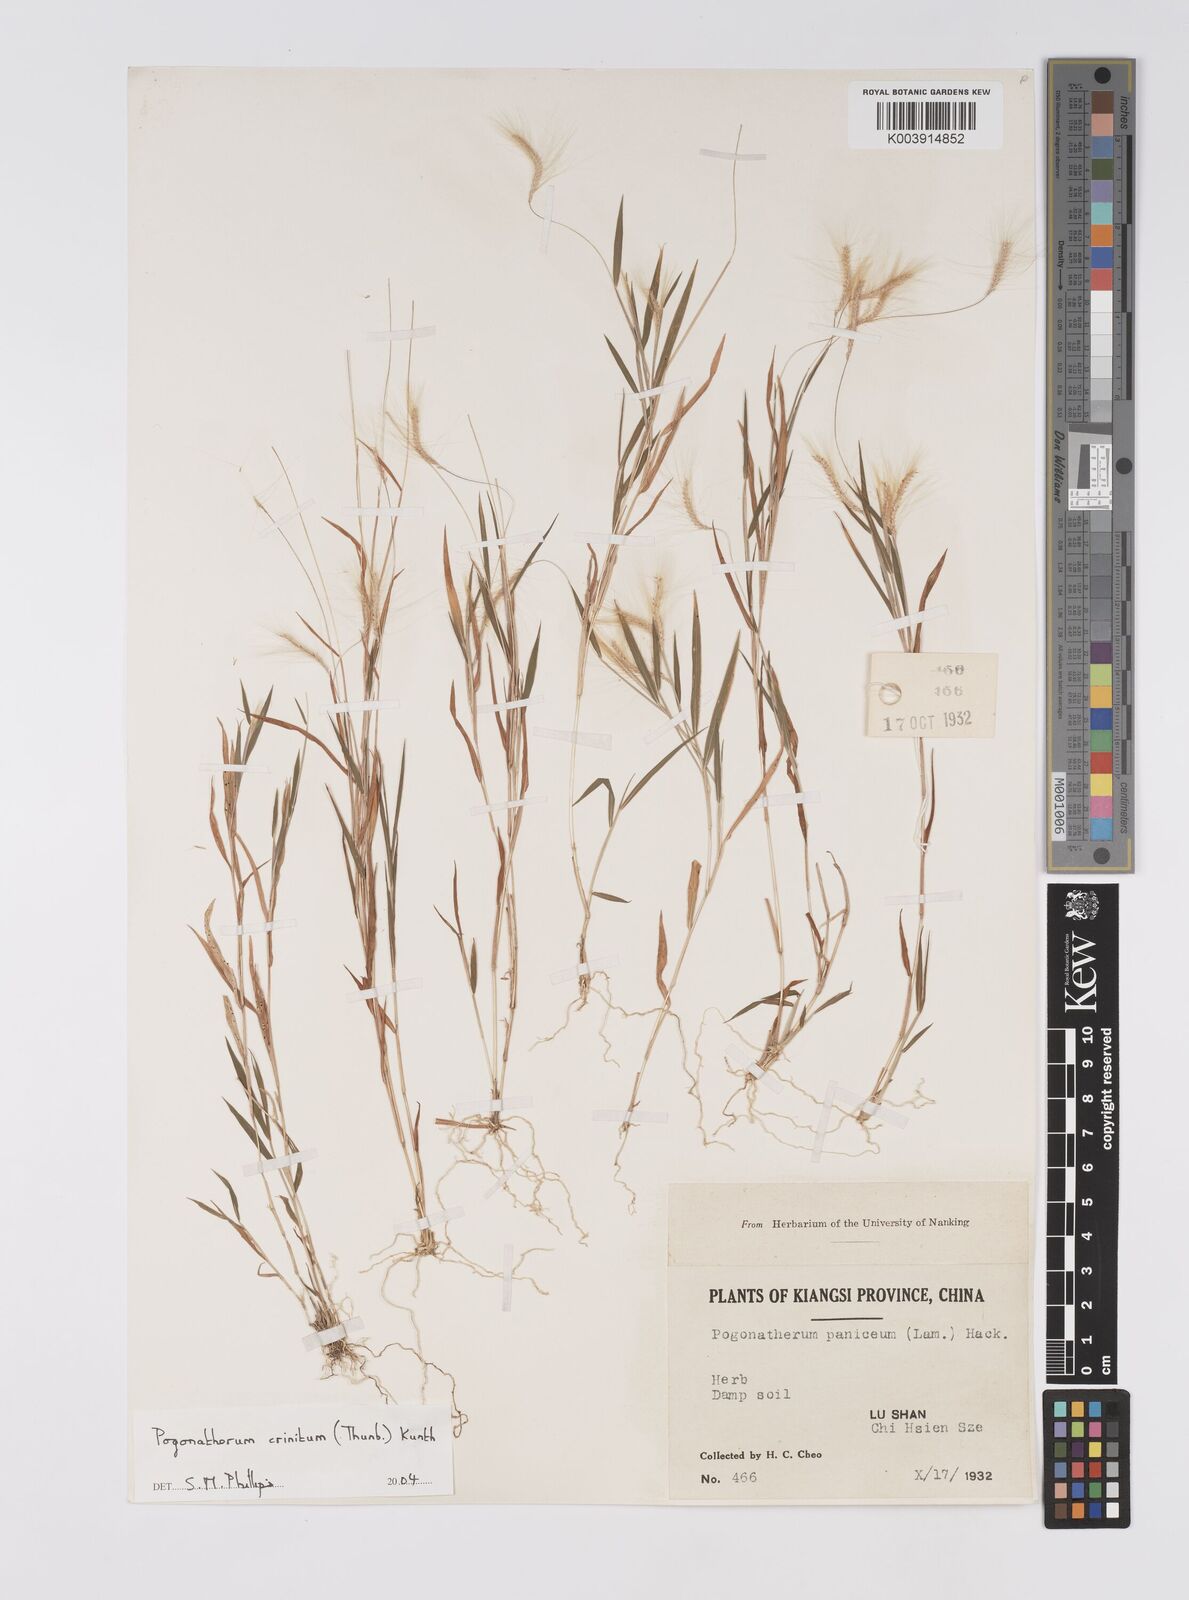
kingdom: Plantae
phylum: Tracheophyta
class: Liliopsida
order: Poales
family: Poaceae
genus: Pogonatherum
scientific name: Pogonatherum crinitum
